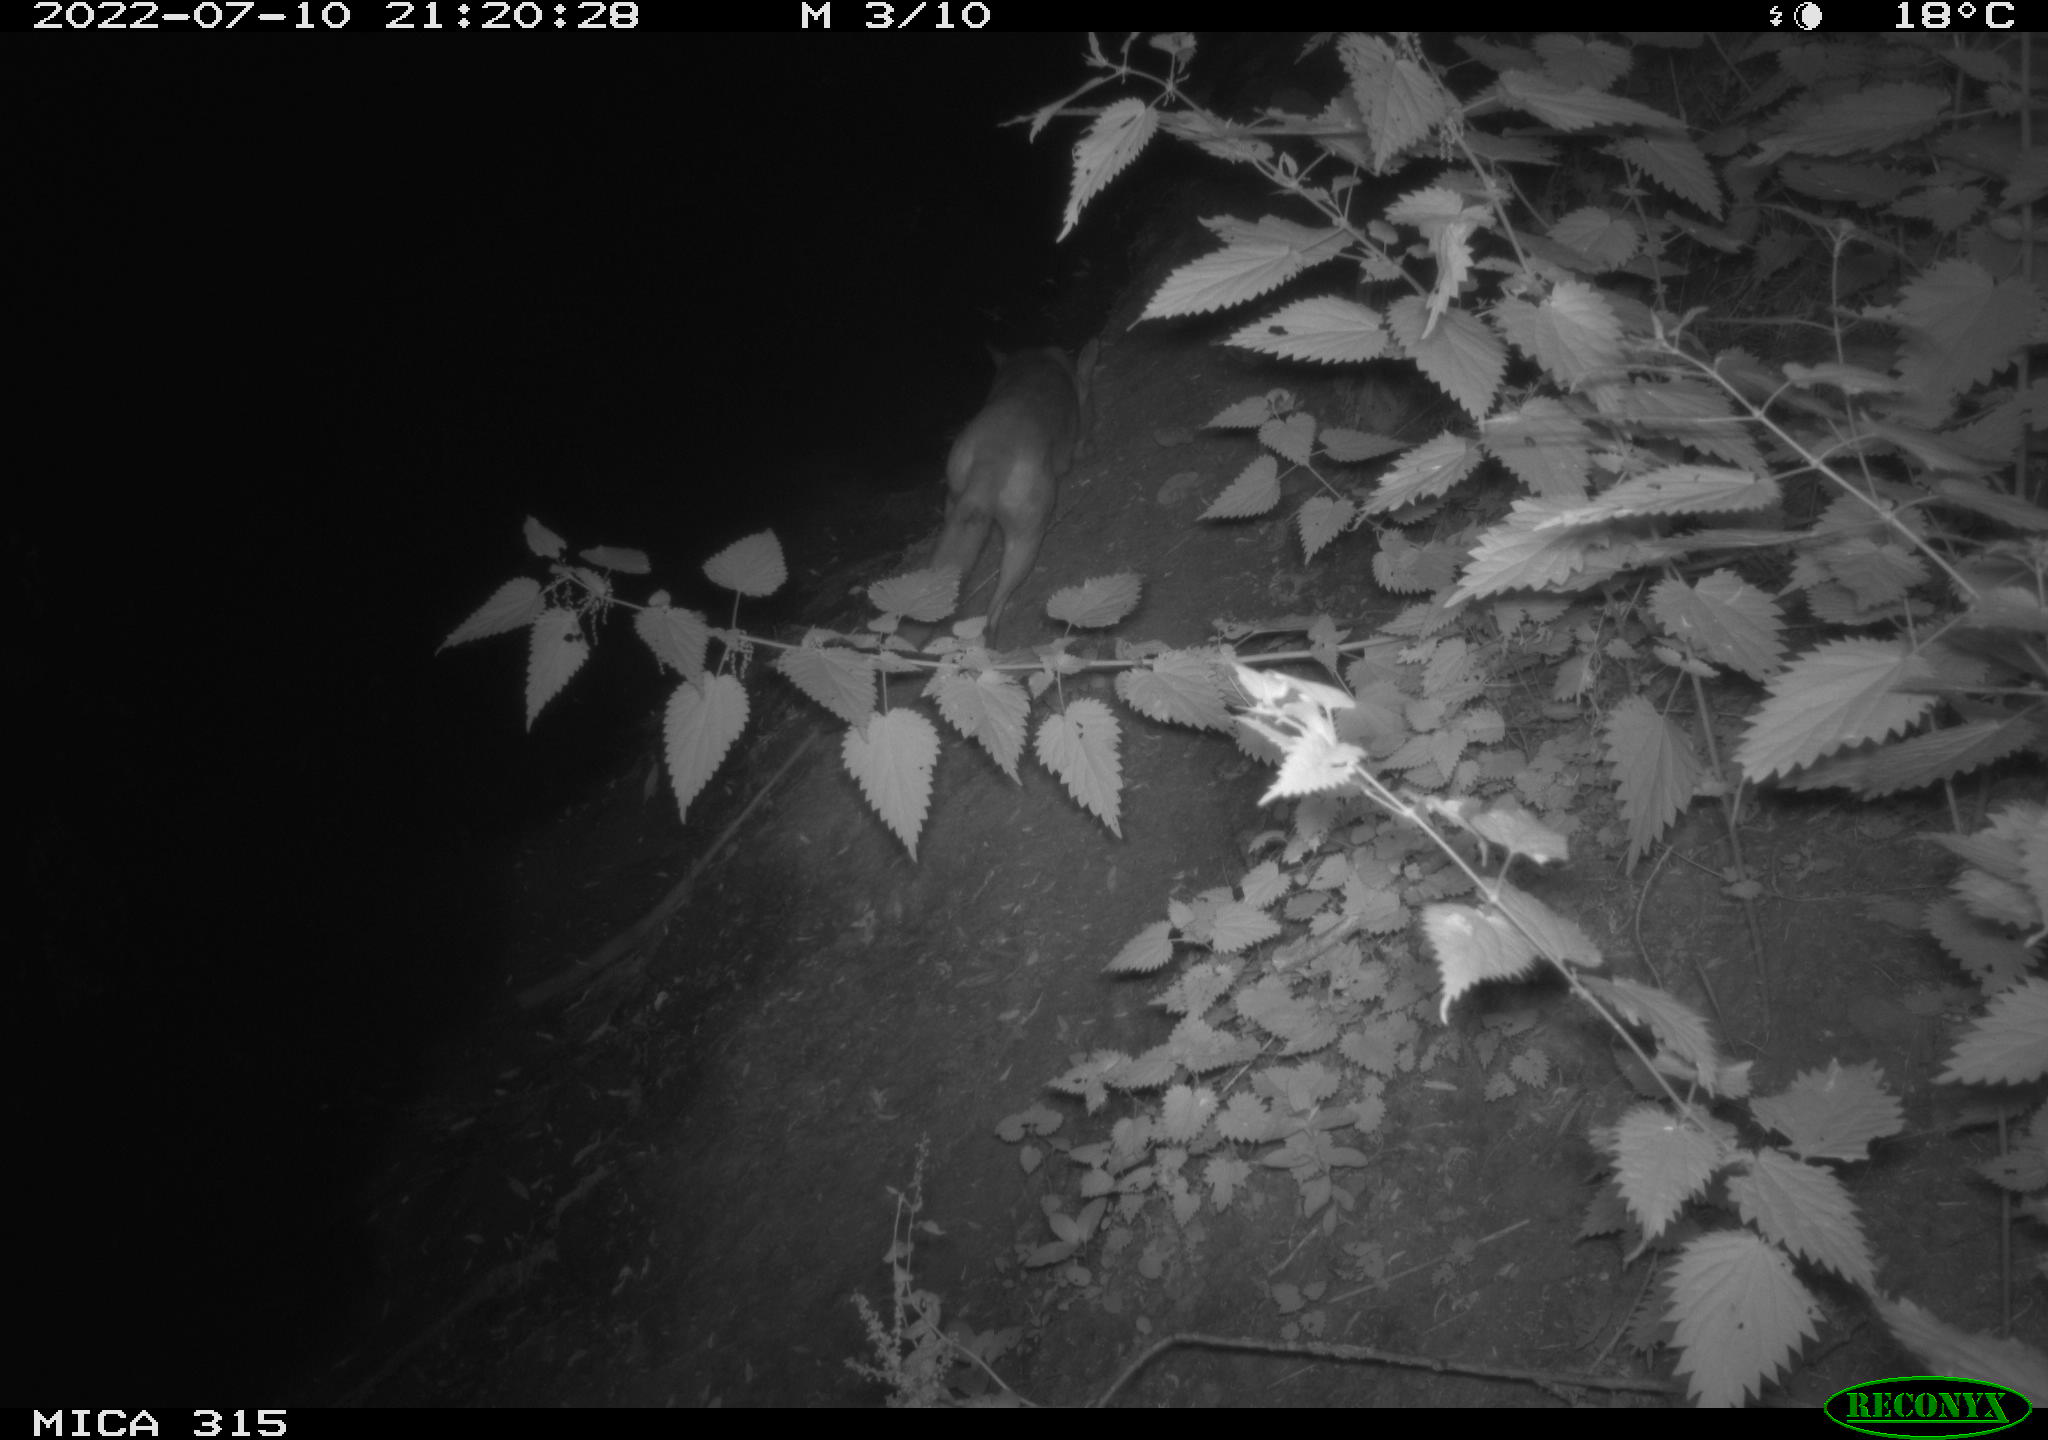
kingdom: Animalia
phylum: Chordata
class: Mammalia
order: Carnivora
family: Canidae
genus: Vulpes
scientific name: Vulpes vulpes
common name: Red fox
